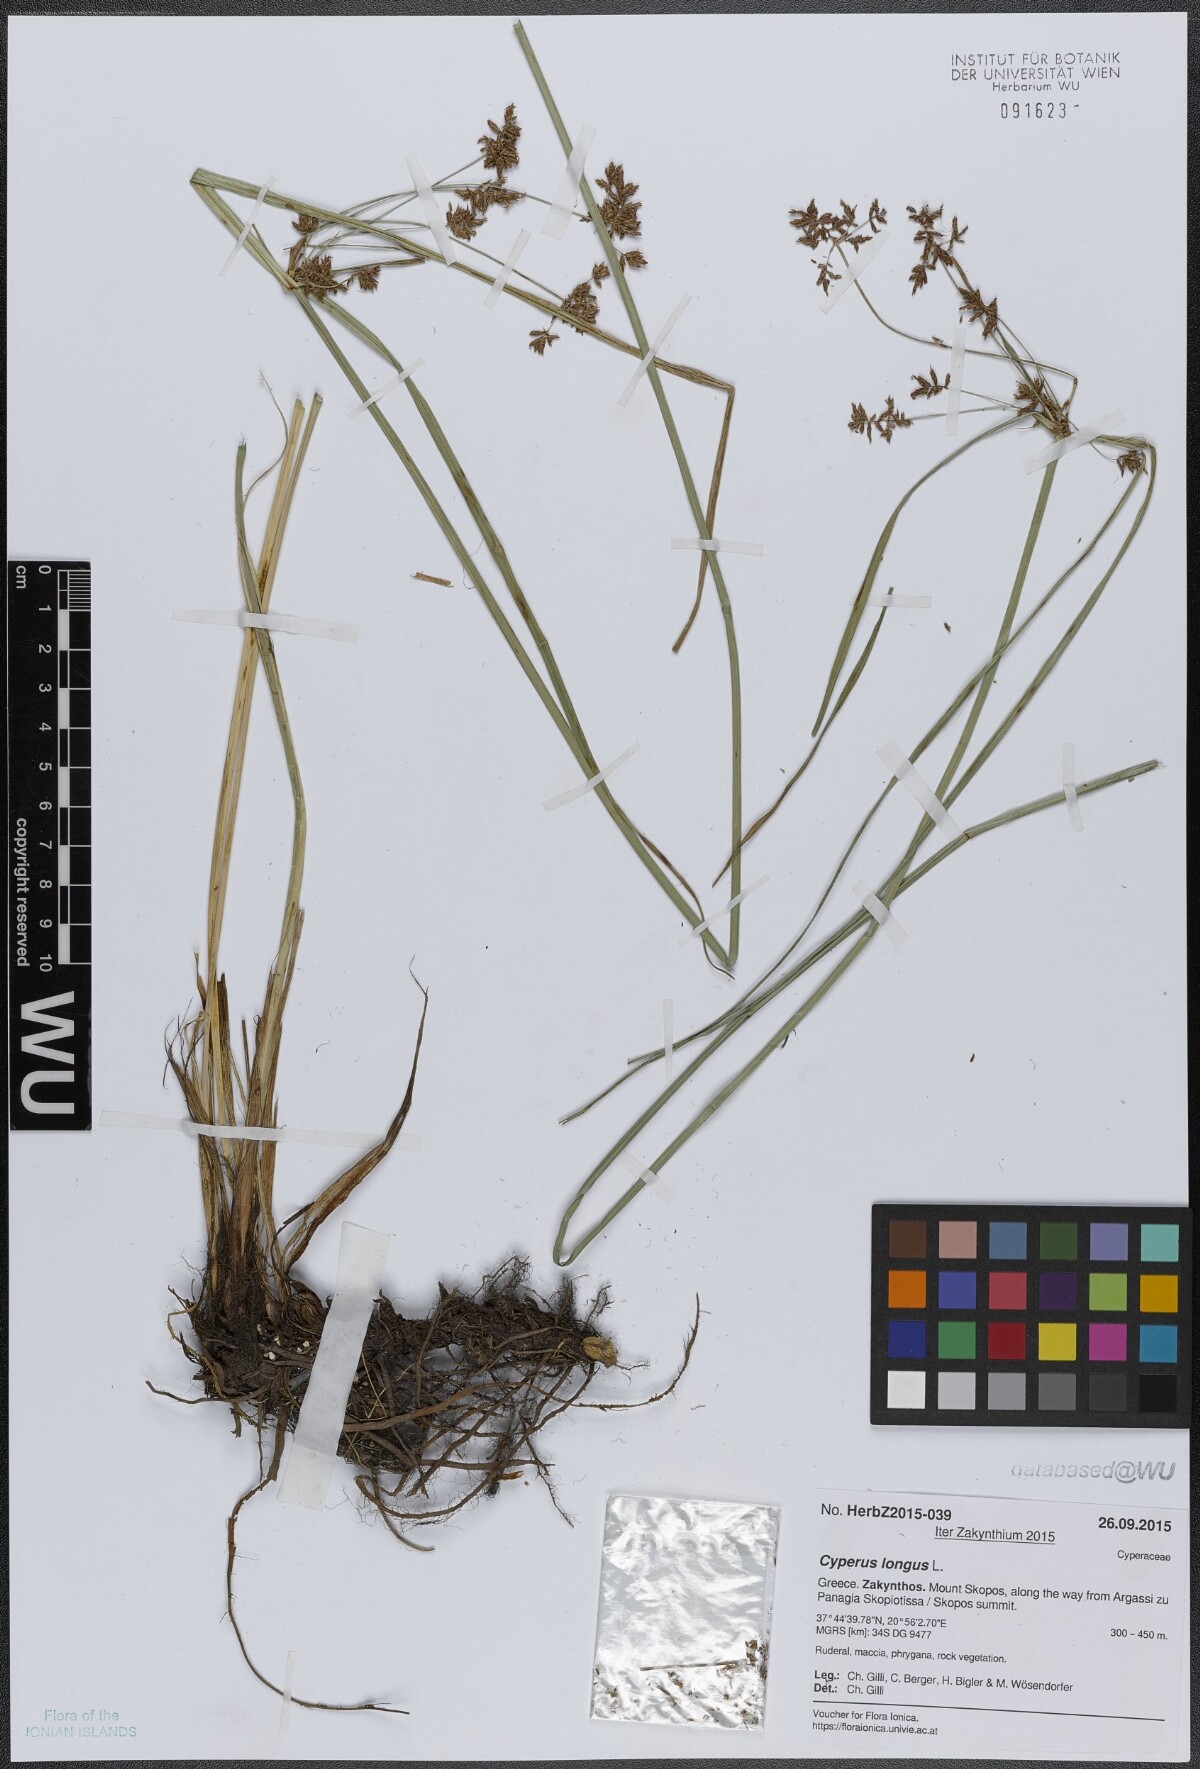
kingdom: Plantae
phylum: Tracheophyta
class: Liliopsida
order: Poales
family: Cyperaceae
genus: Cyperus
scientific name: Cyperus longus
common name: Galingale
